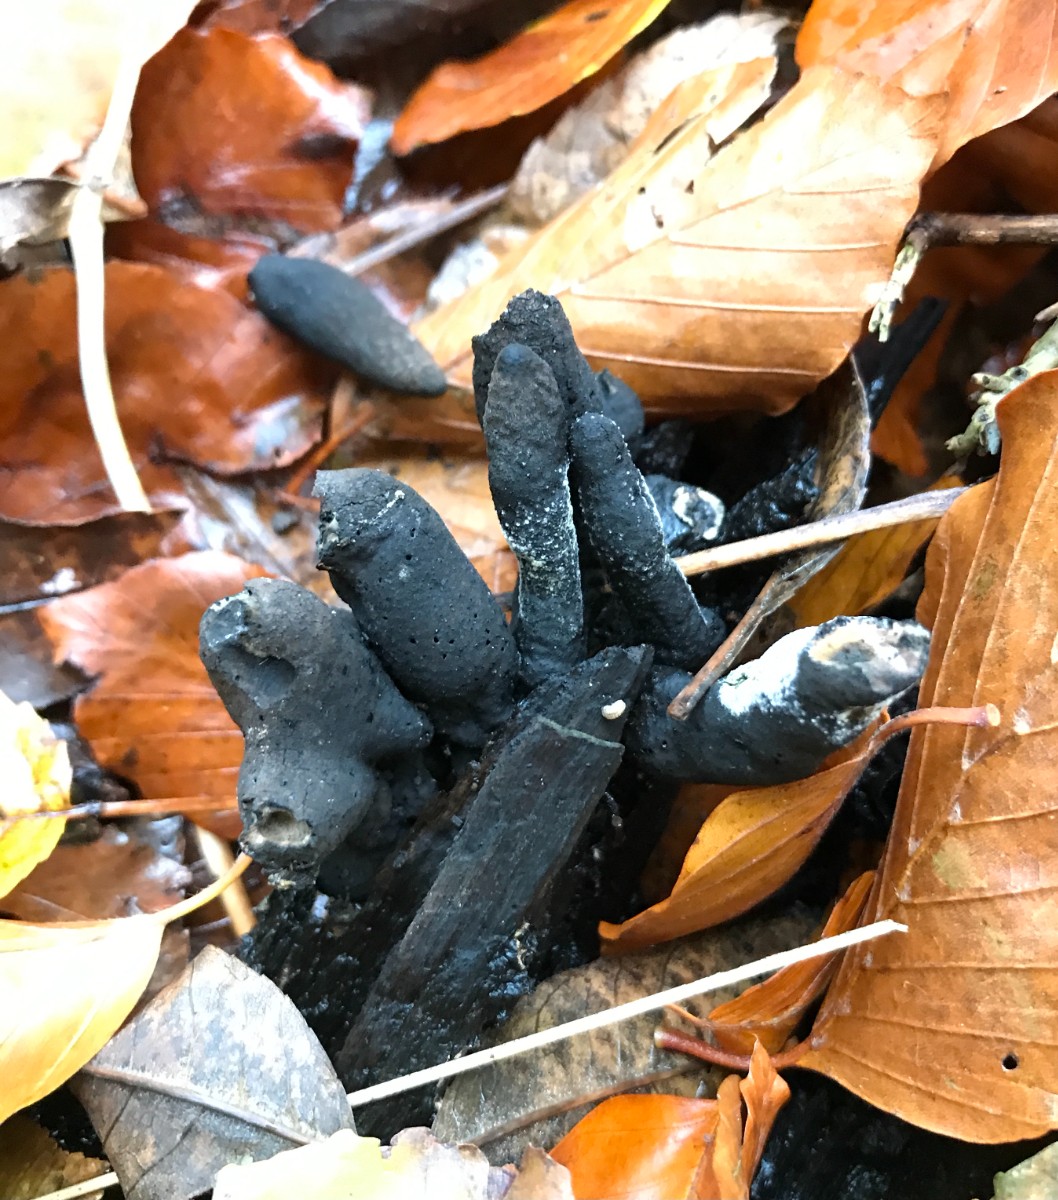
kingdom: Fungi
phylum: Ascomycota
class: Sordariomycetes
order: Xylariales
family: Xylariaceae
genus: Xylaria
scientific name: Xylaria polymorpha
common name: kølle-stødsvamp
